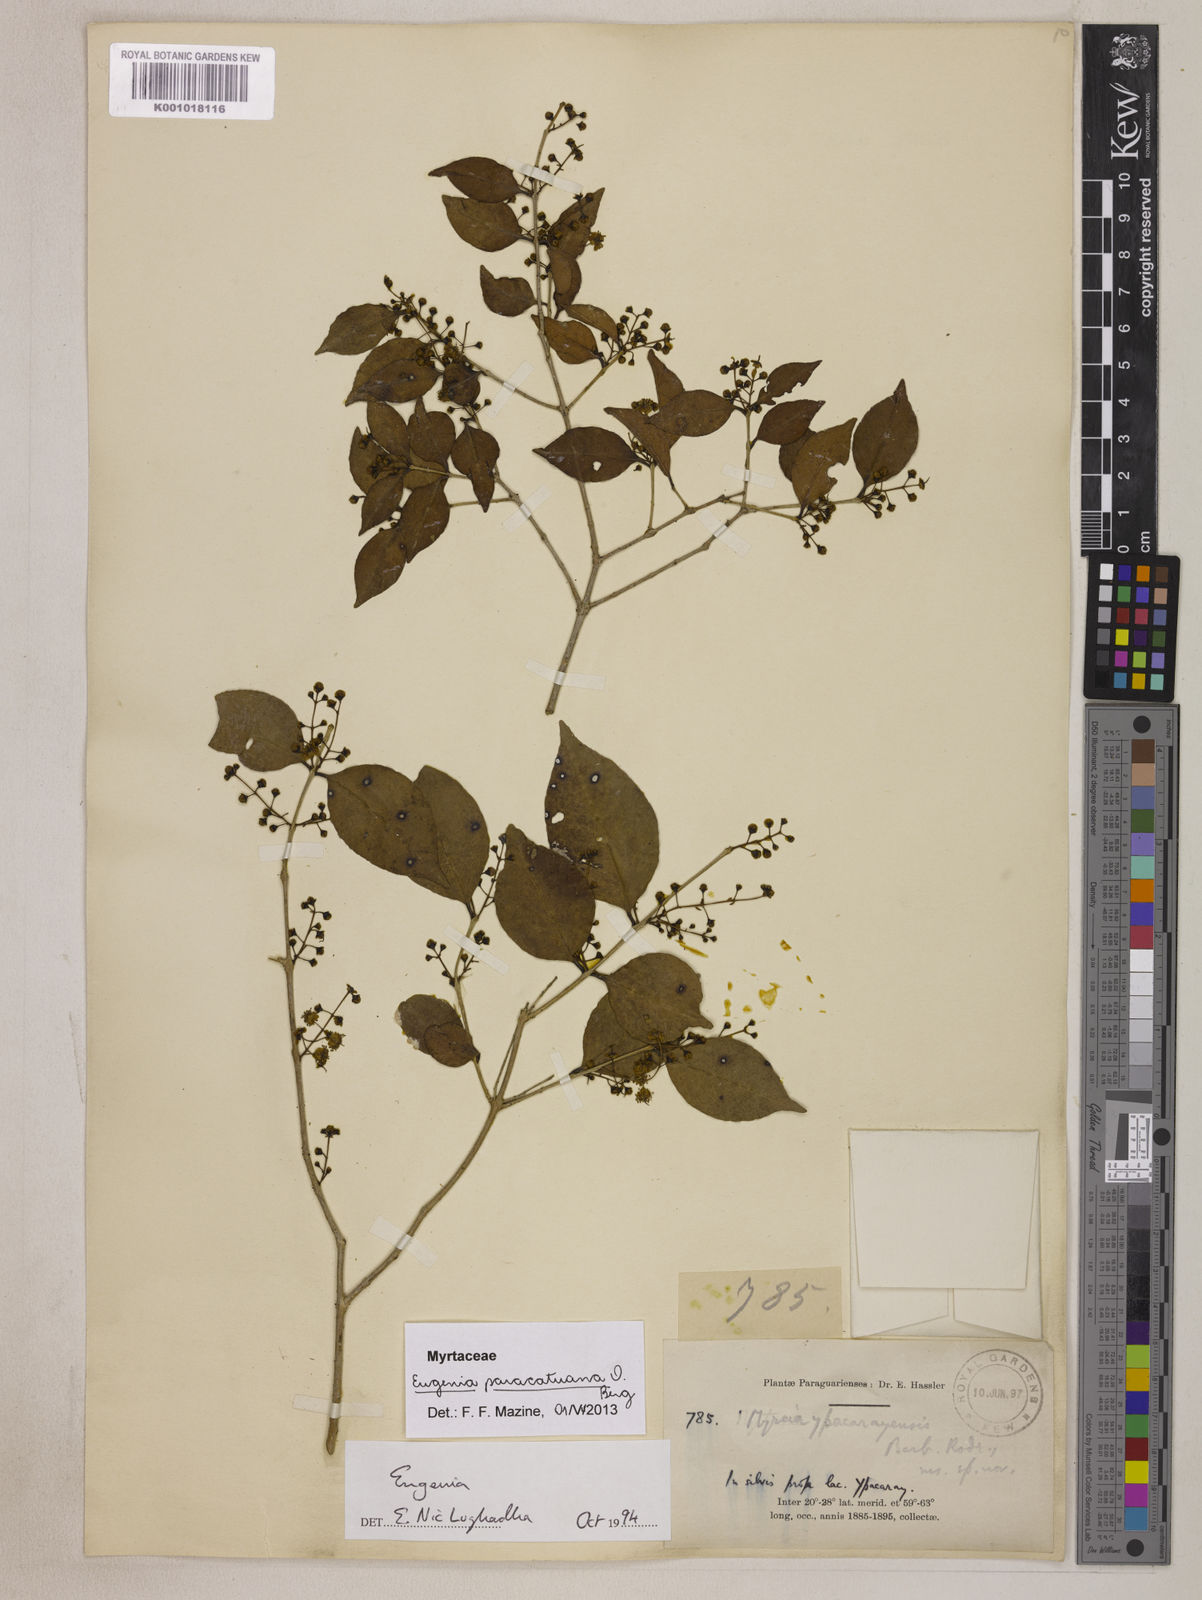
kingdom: Plantae
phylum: Tracheophyta
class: Magnoliopsida
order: Myrtales
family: Myrtaceae
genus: Eugenia
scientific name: Eugenia moraviana
